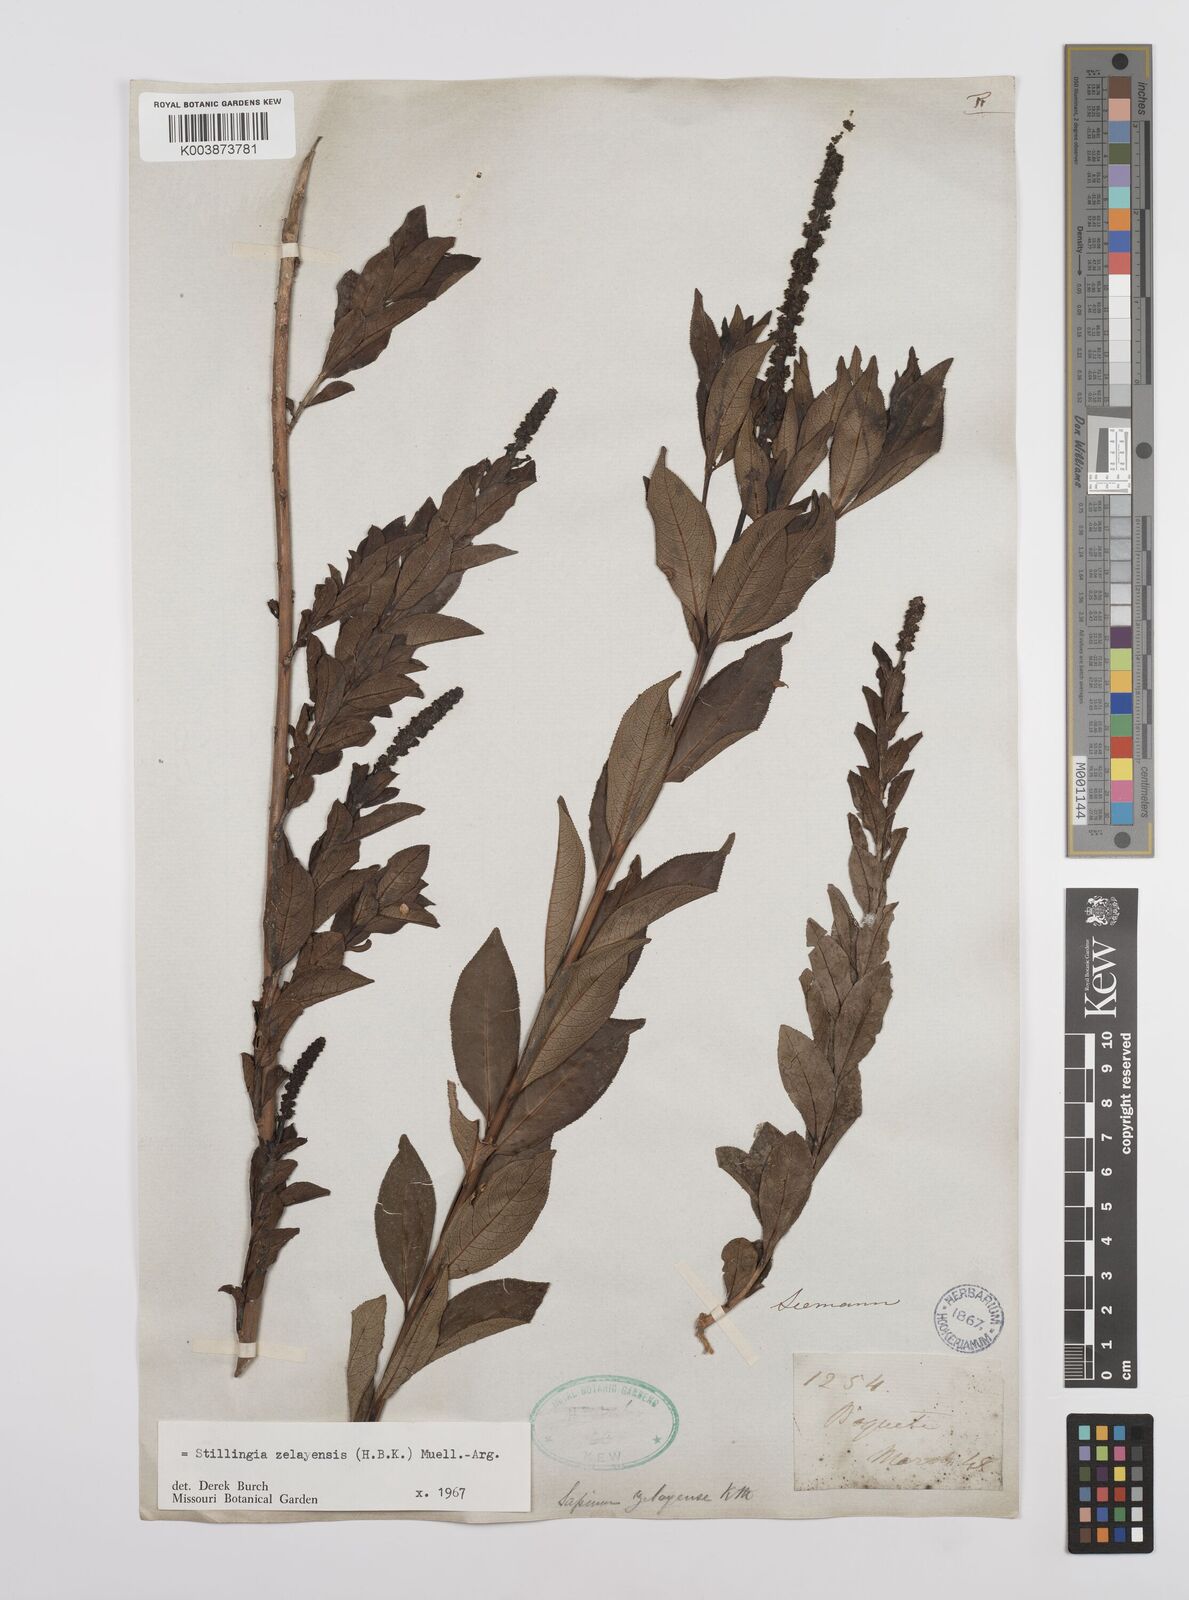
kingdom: Plantae
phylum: Tracheophyta
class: Magnoliopsida
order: Malpighiales
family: Euphorbiaceae
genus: Stillingia
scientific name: Stillingia zelayensis
